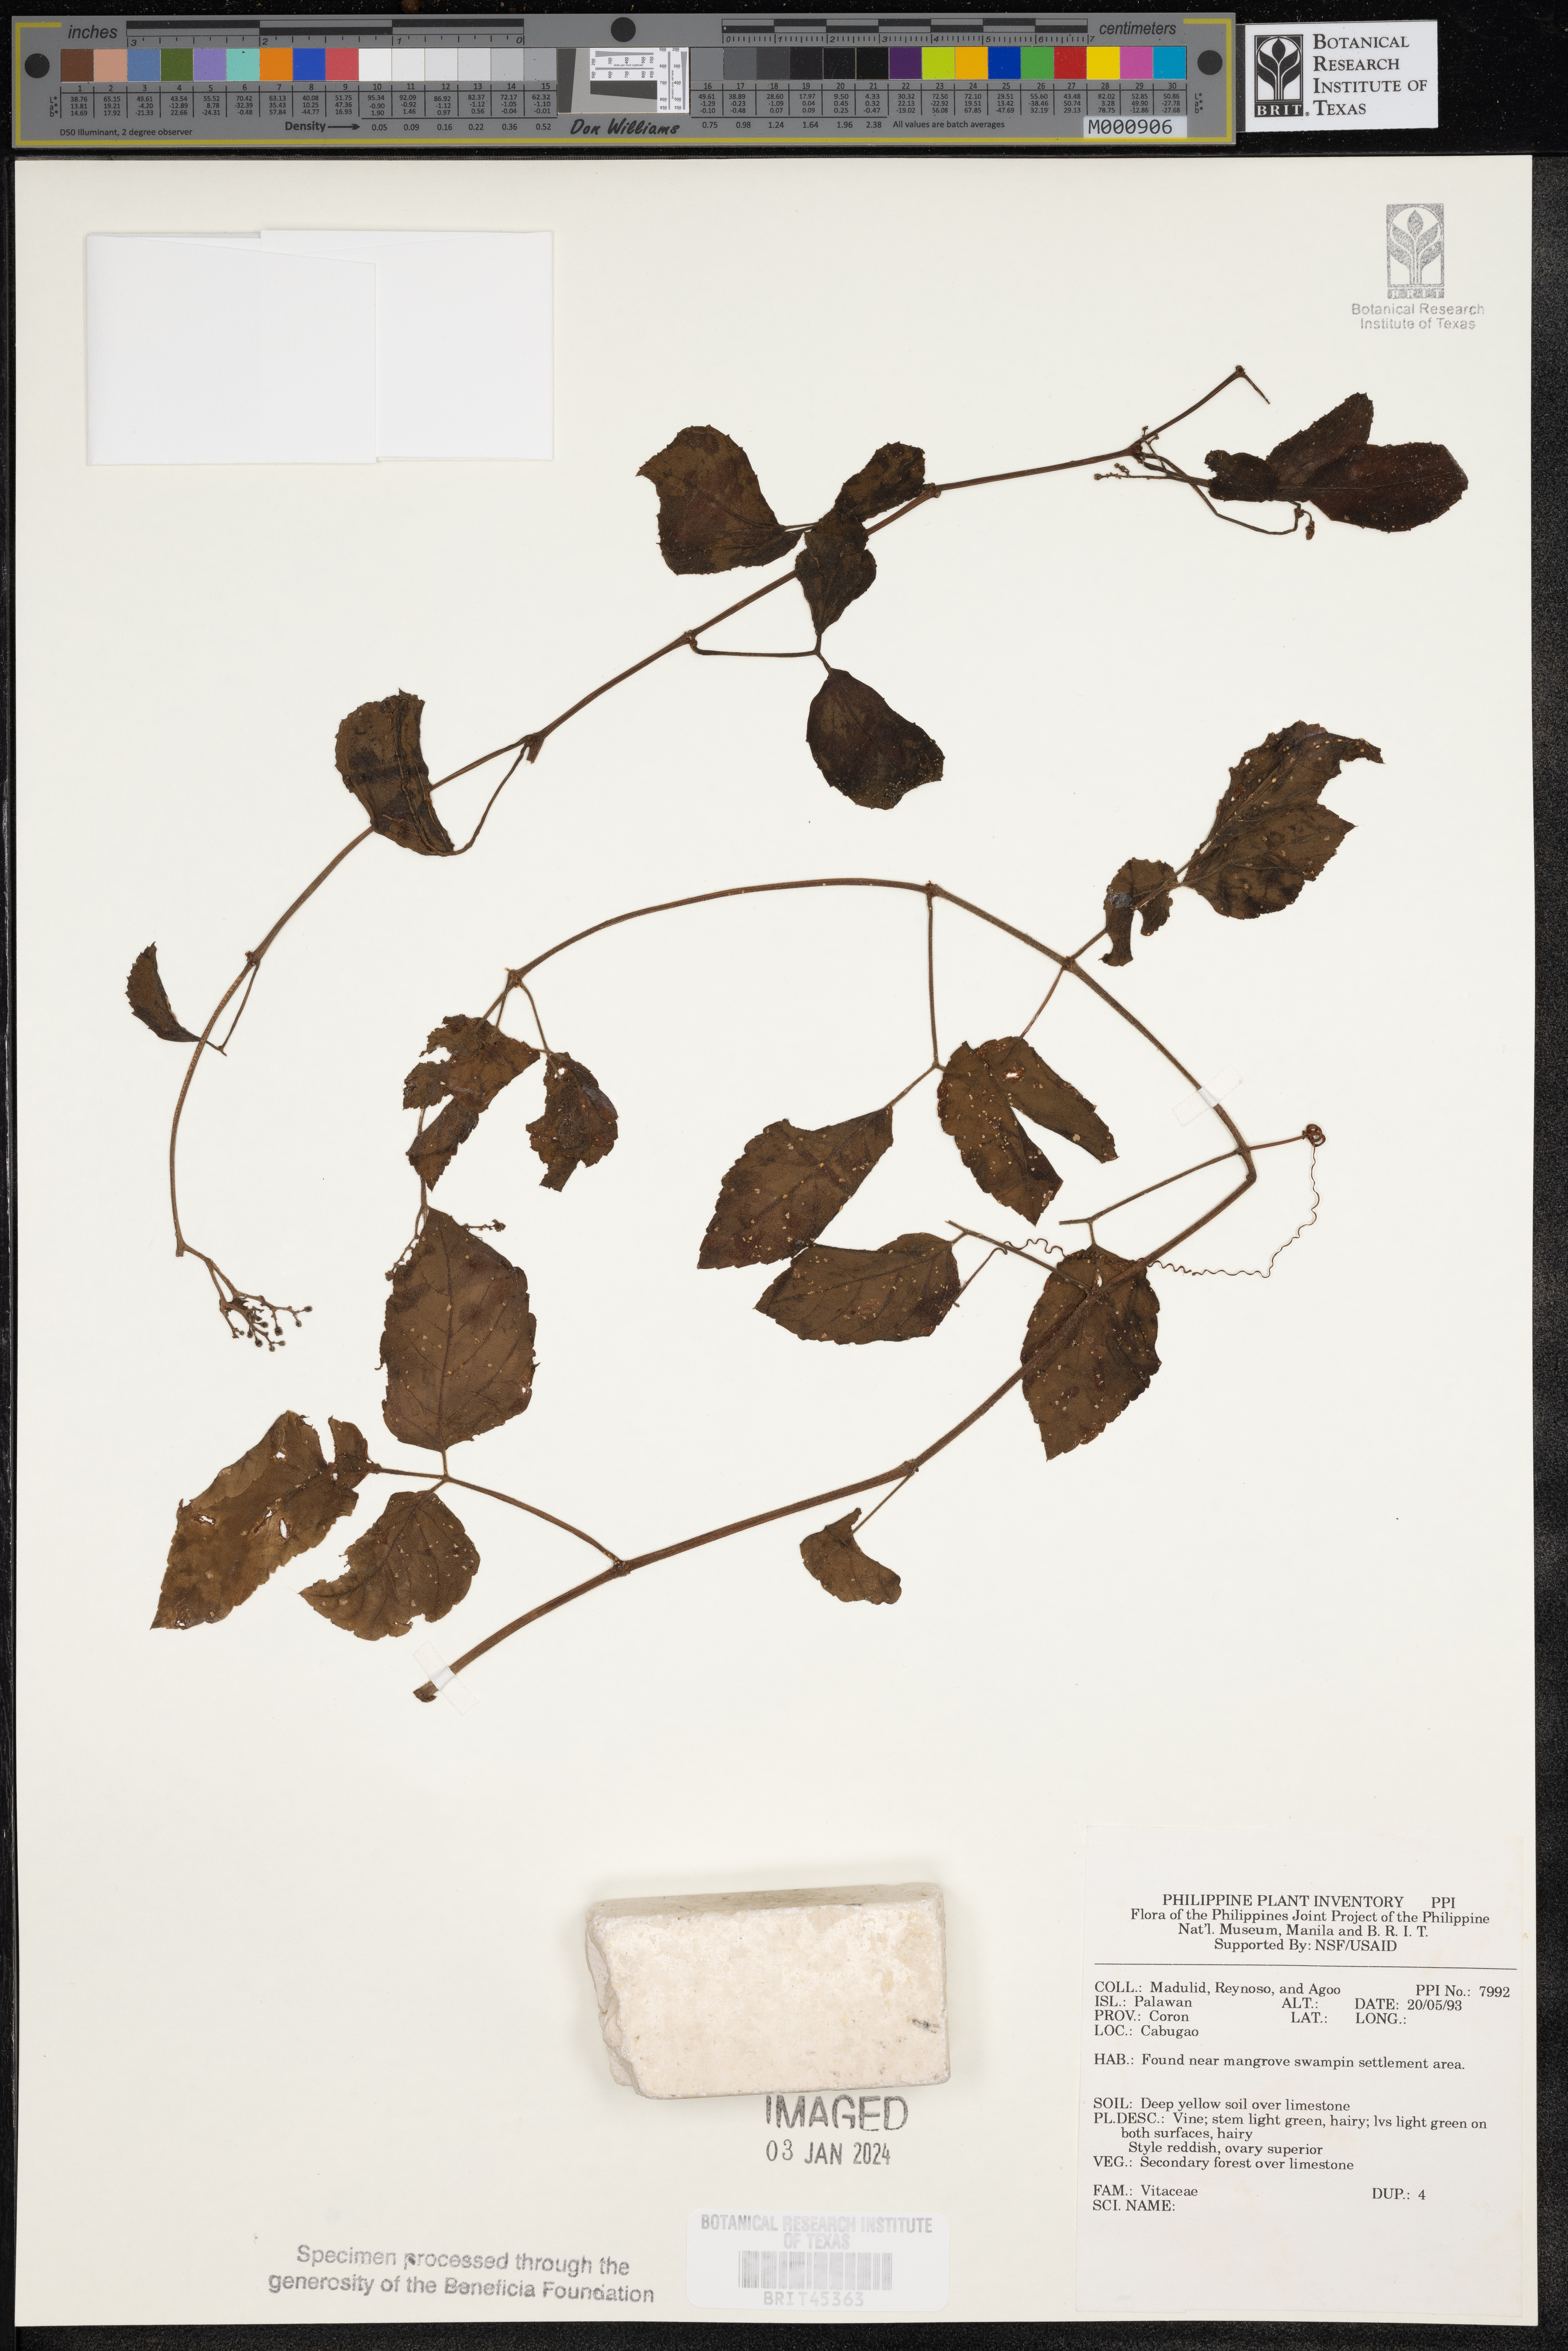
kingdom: Plantae
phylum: Tracheophyta
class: Magnoliopsida
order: Vitales
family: Vitaceae
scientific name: Vitaceae
